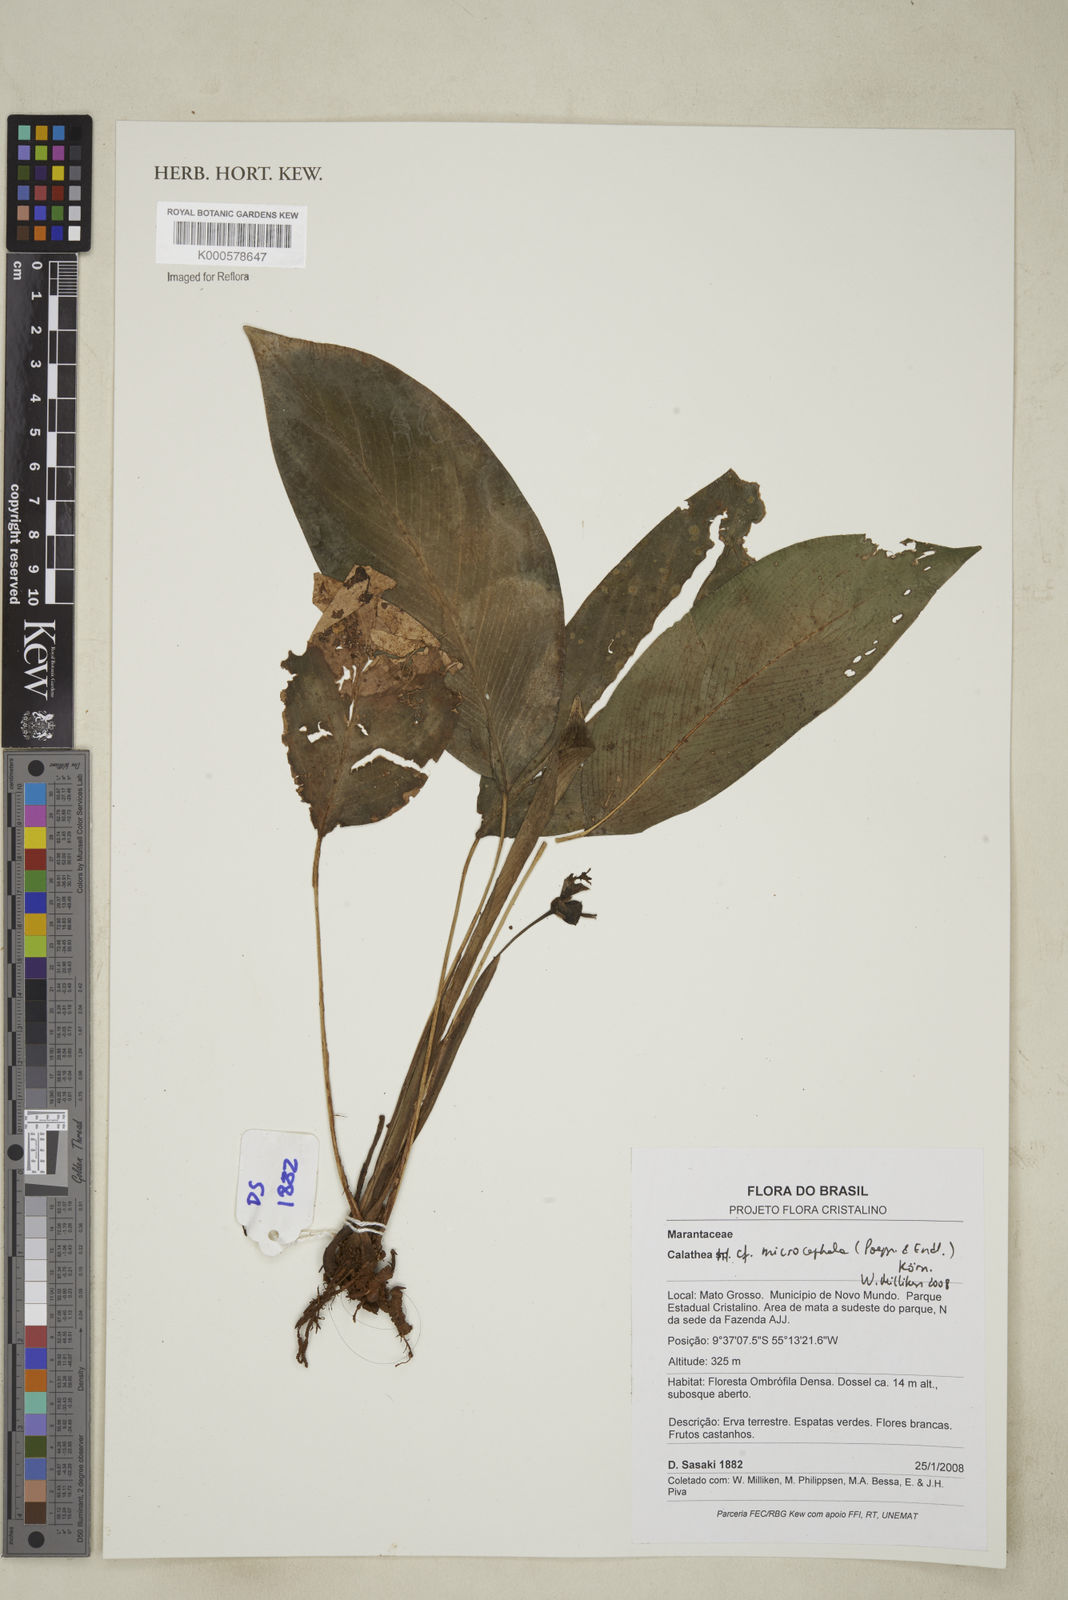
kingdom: Plantae
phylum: Tracheophyta
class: Liliopsida
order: Zingiberales
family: Marantaceae
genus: Calathea
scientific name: Calathea
